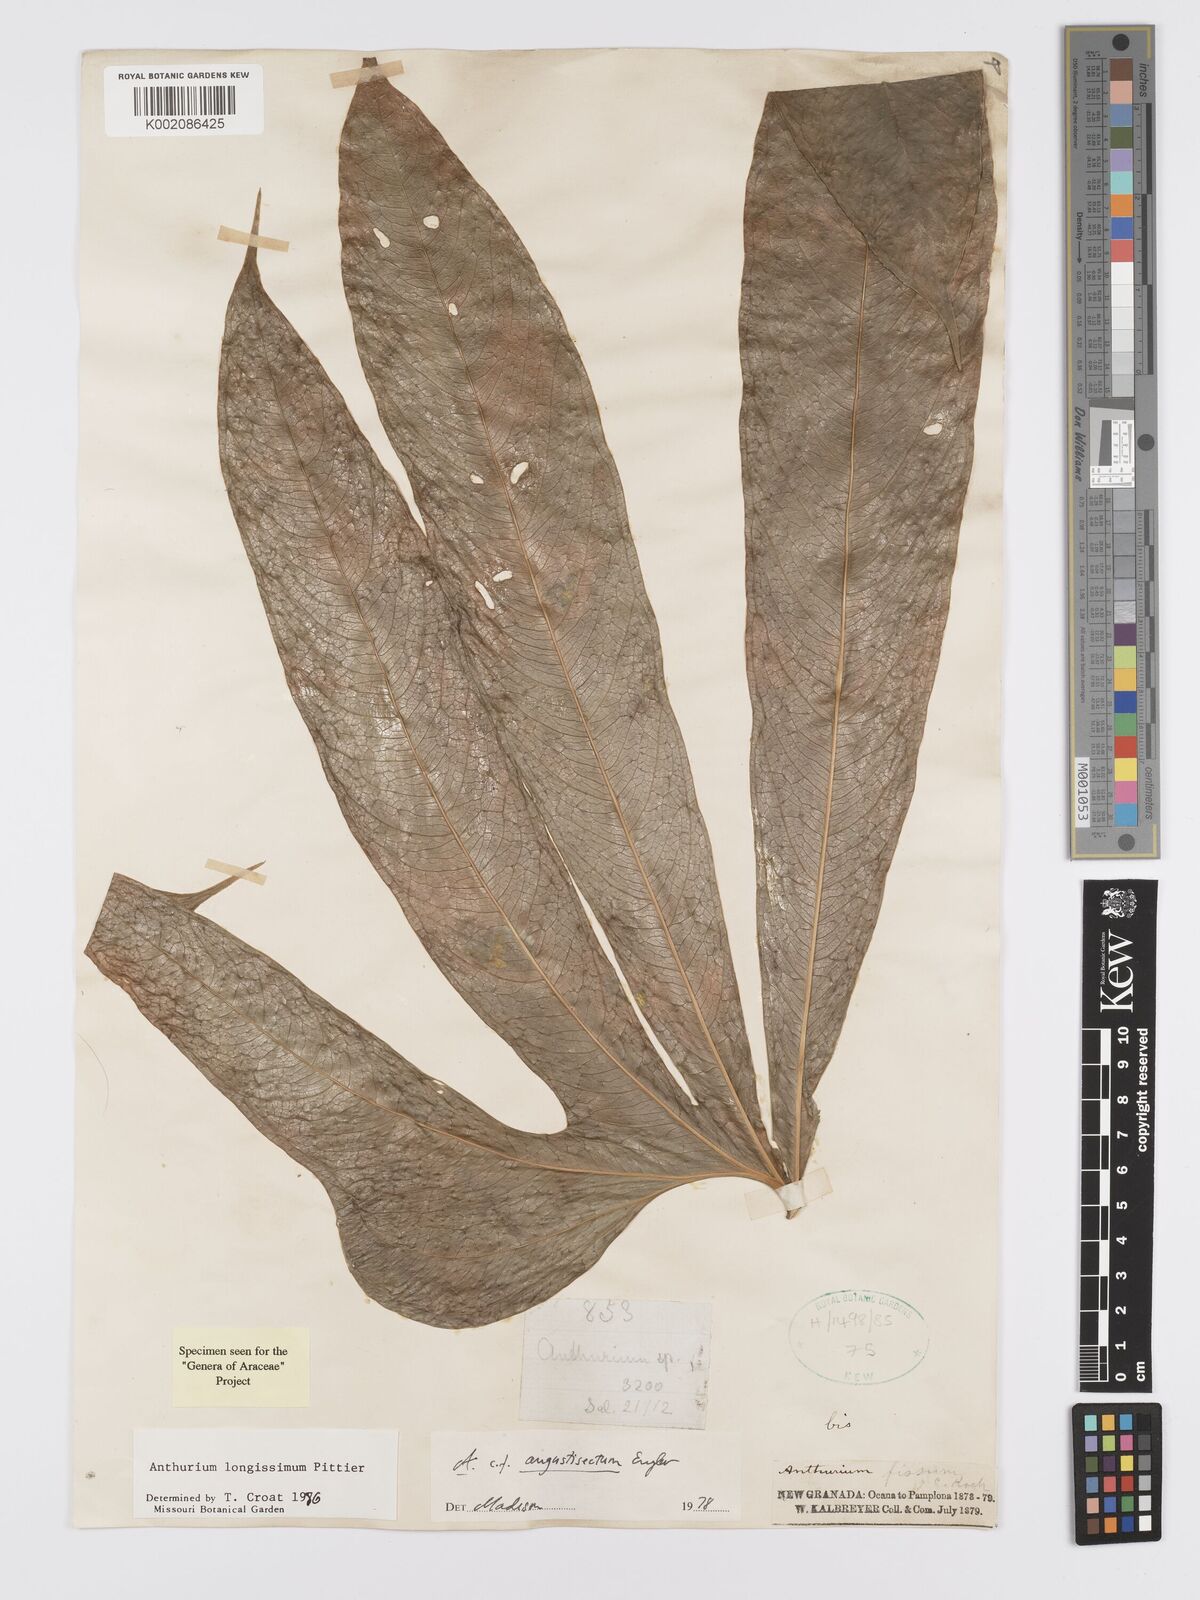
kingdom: Plantae
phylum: Tracheophyta
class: Liliopsida
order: Alismatales
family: Araceae
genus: Anthurium
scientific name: Anthurium longissimum
